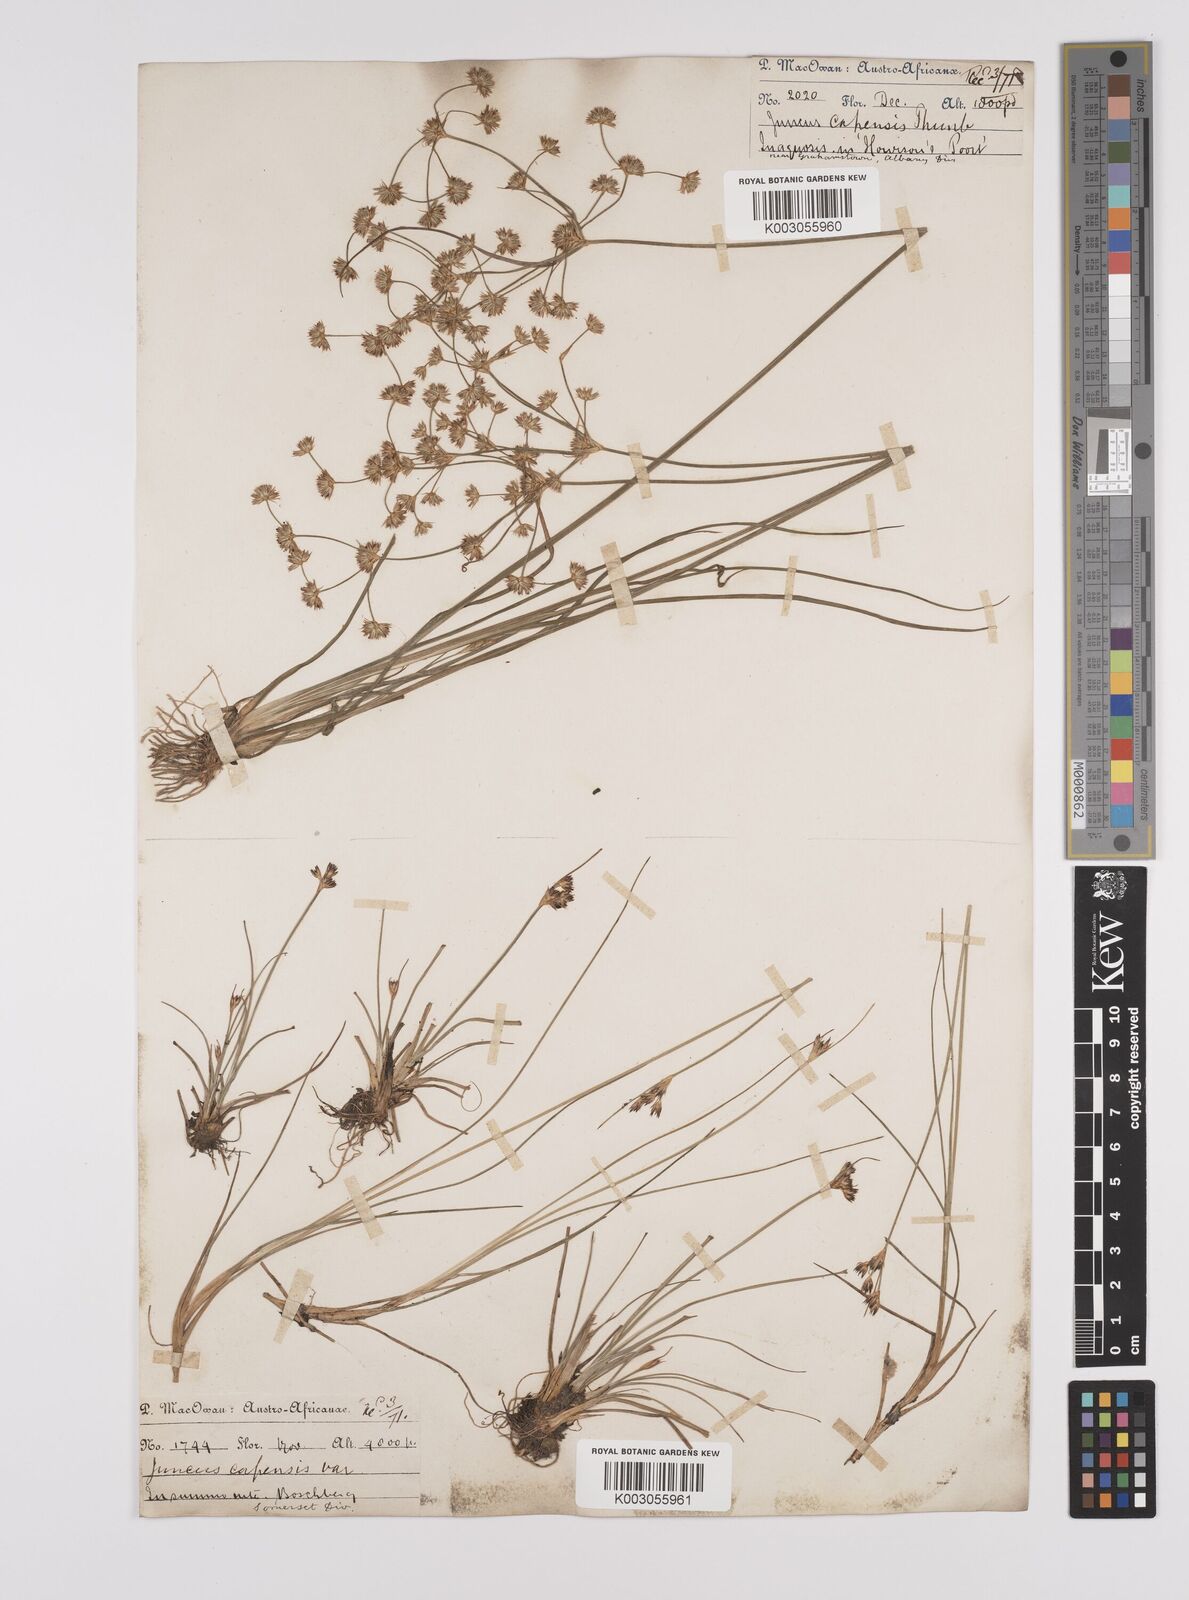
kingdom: Plantae
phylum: Tracheophyta
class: Liliopsida
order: Poales
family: Juncaceae
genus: Juncus
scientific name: Juncus capensis
